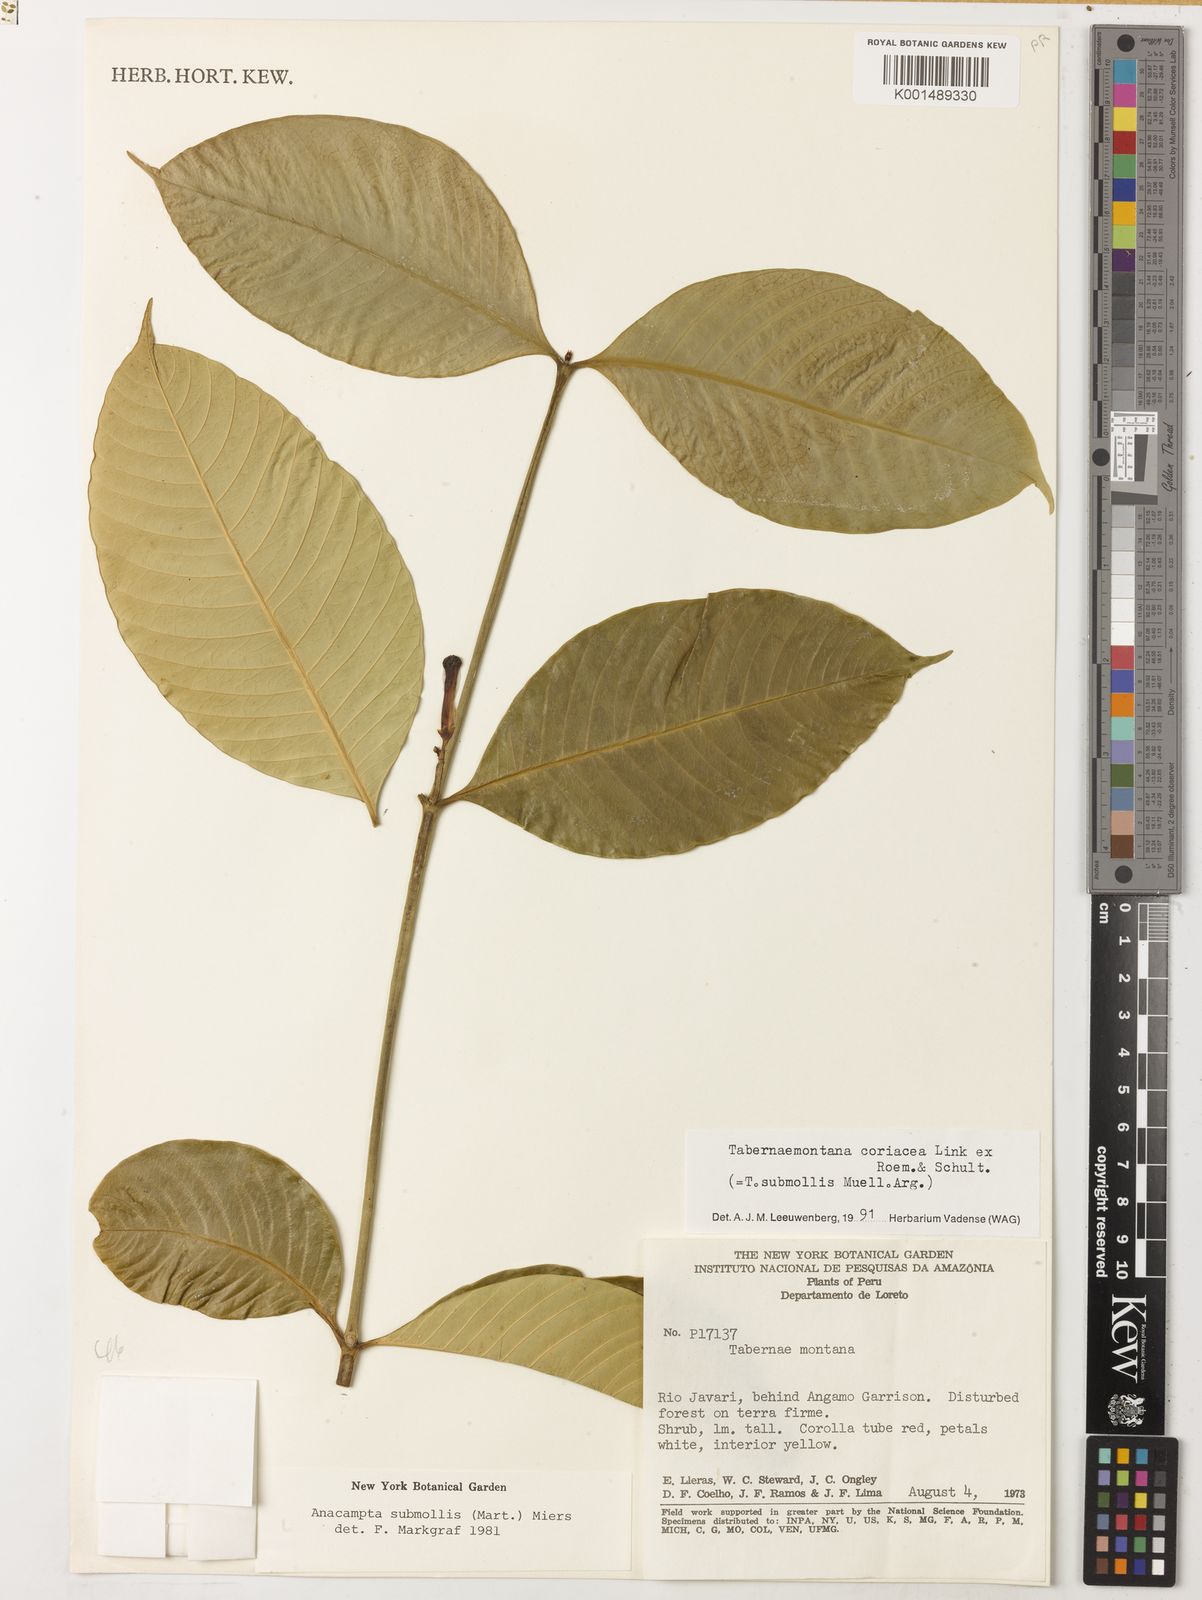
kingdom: Plantae
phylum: Tracheophyta
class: Magnoliopsida
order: Gentianales
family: Apocynaceae
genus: Tabernaemontana
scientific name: Tabernaemontana coriacea
